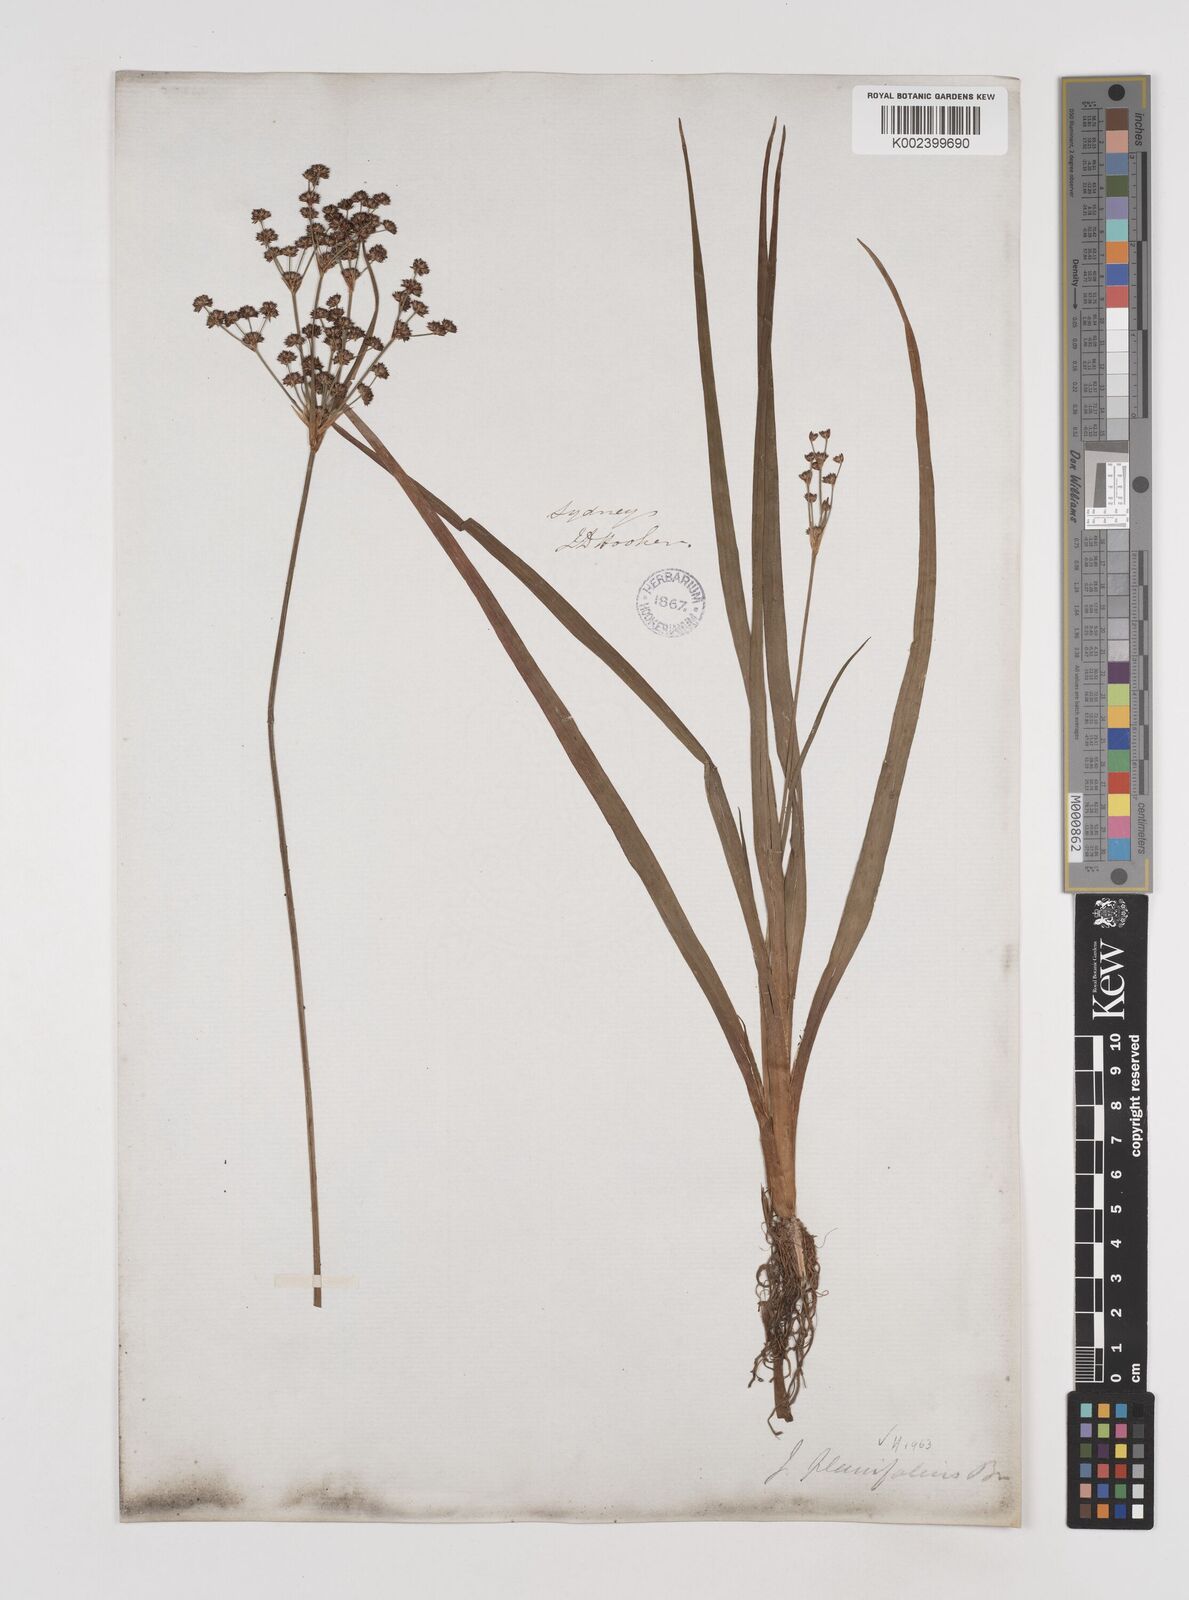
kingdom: Plantae
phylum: Tracheophyta
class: Liliopsida
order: Poales
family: Juncaceae
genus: Juncus
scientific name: Juncus planifolius
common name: Broadleaf rush
